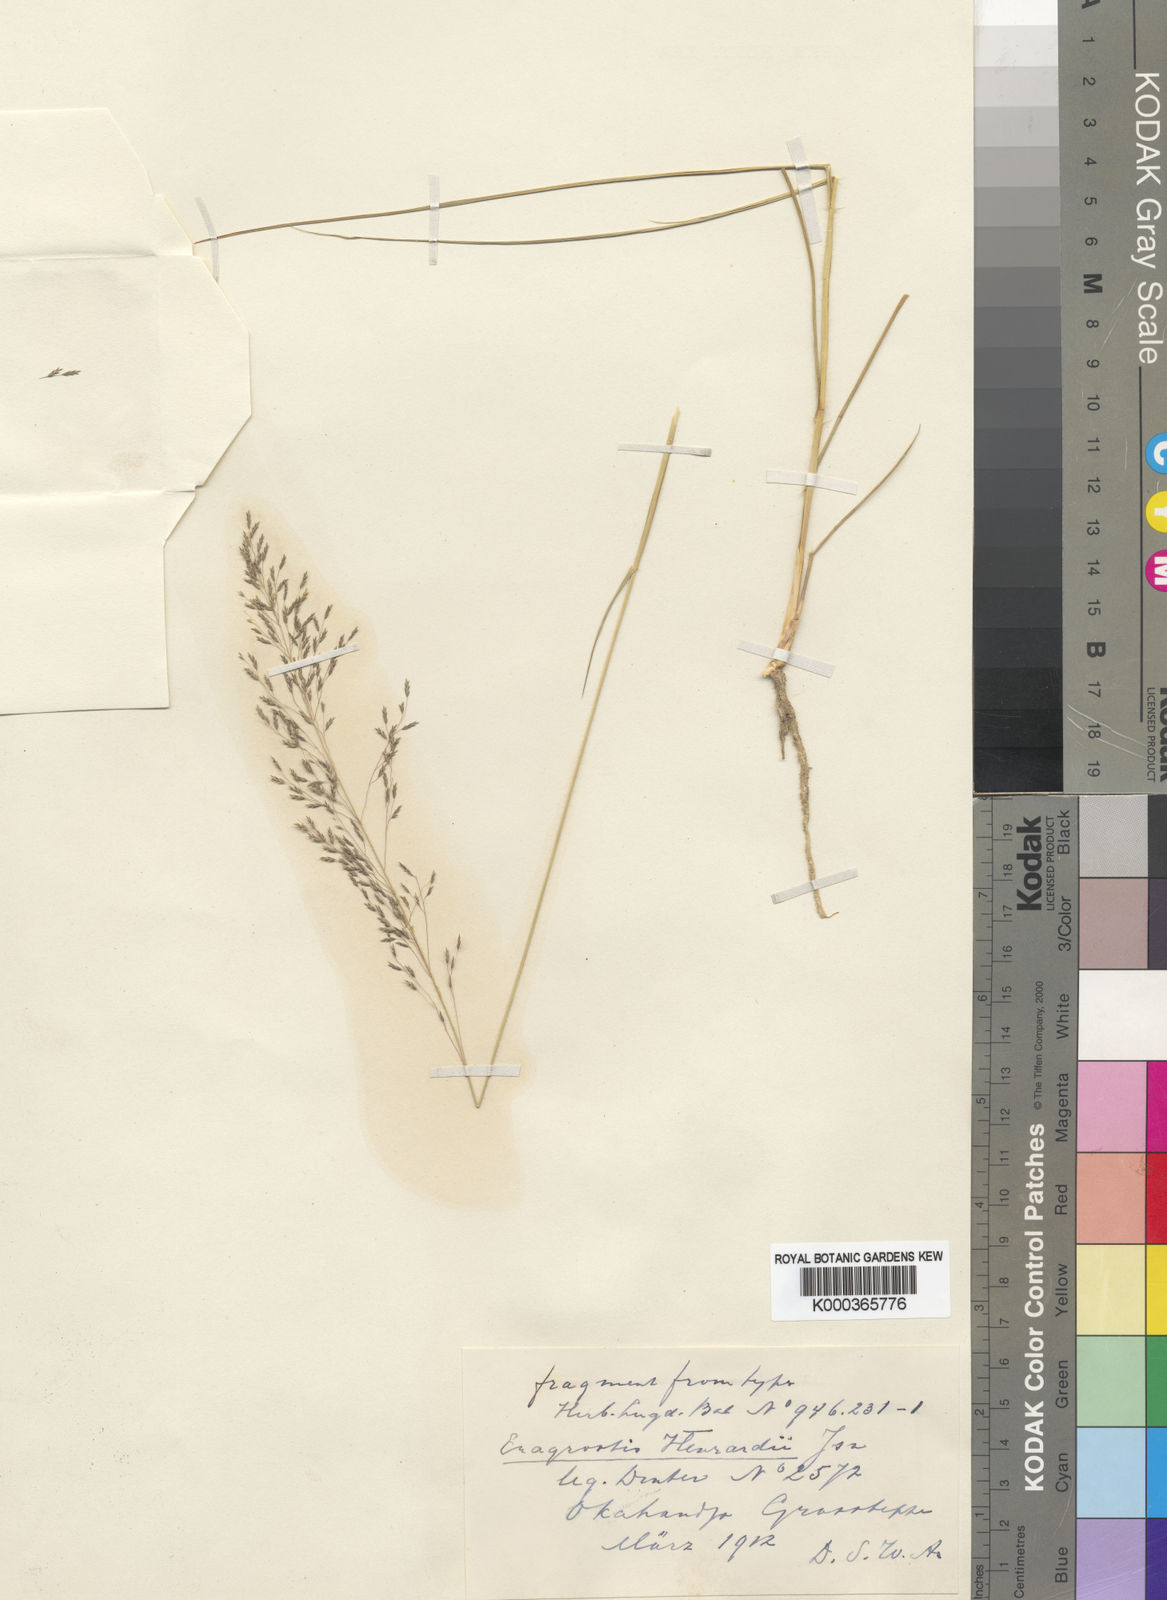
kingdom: Plantae
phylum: Tracheophyta
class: Liliopsida
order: Poales
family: Poaceae
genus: Eragrostis
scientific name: Eragrostis cylindriflora
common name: Cylinderflower lovegrass
